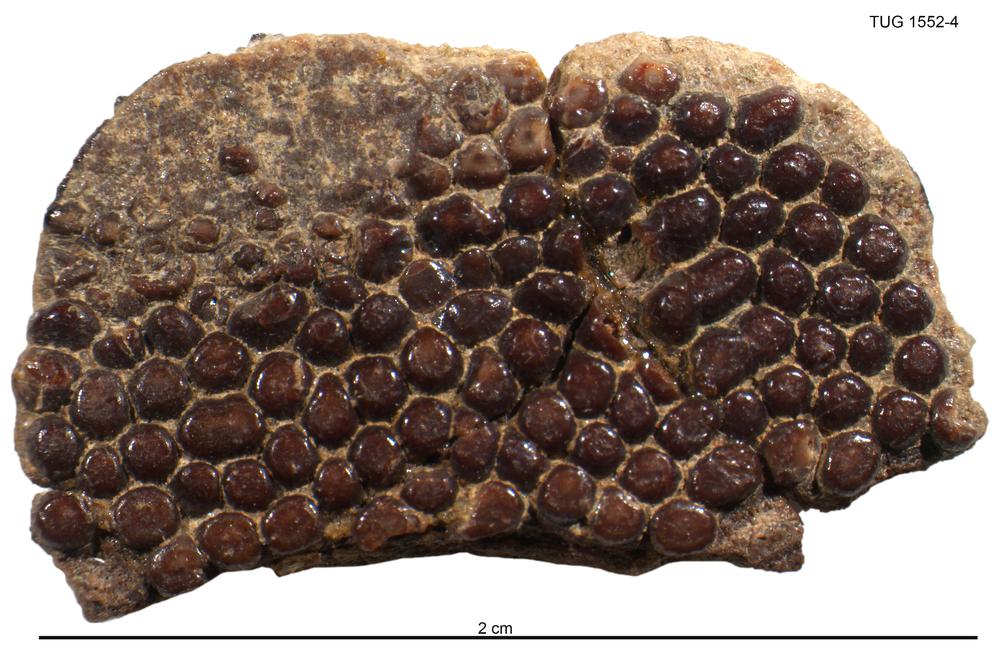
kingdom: Animalia
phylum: Chordata
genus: Guerichosteus
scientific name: Guerichosteus
